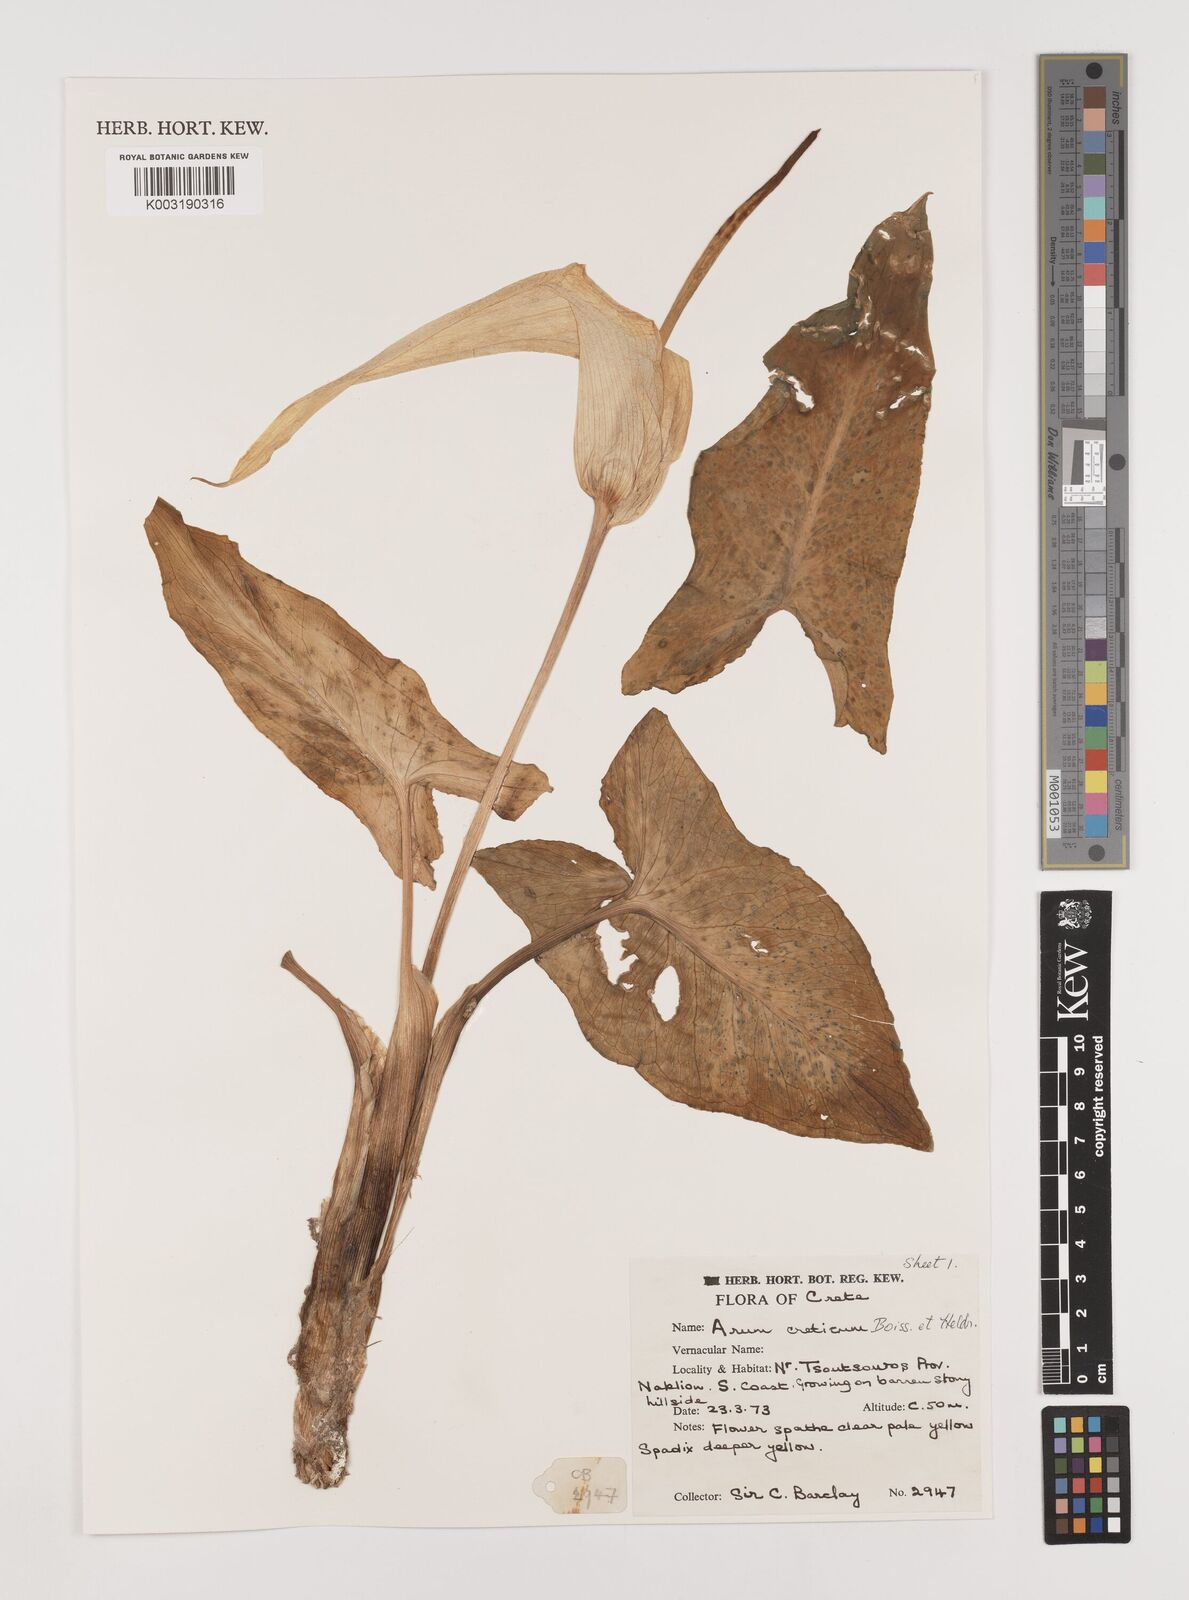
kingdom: Plantae
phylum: Tracheophyta
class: Liliopsida
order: Alismatales
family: Araceae
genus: Arum
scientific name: Arum creticum
